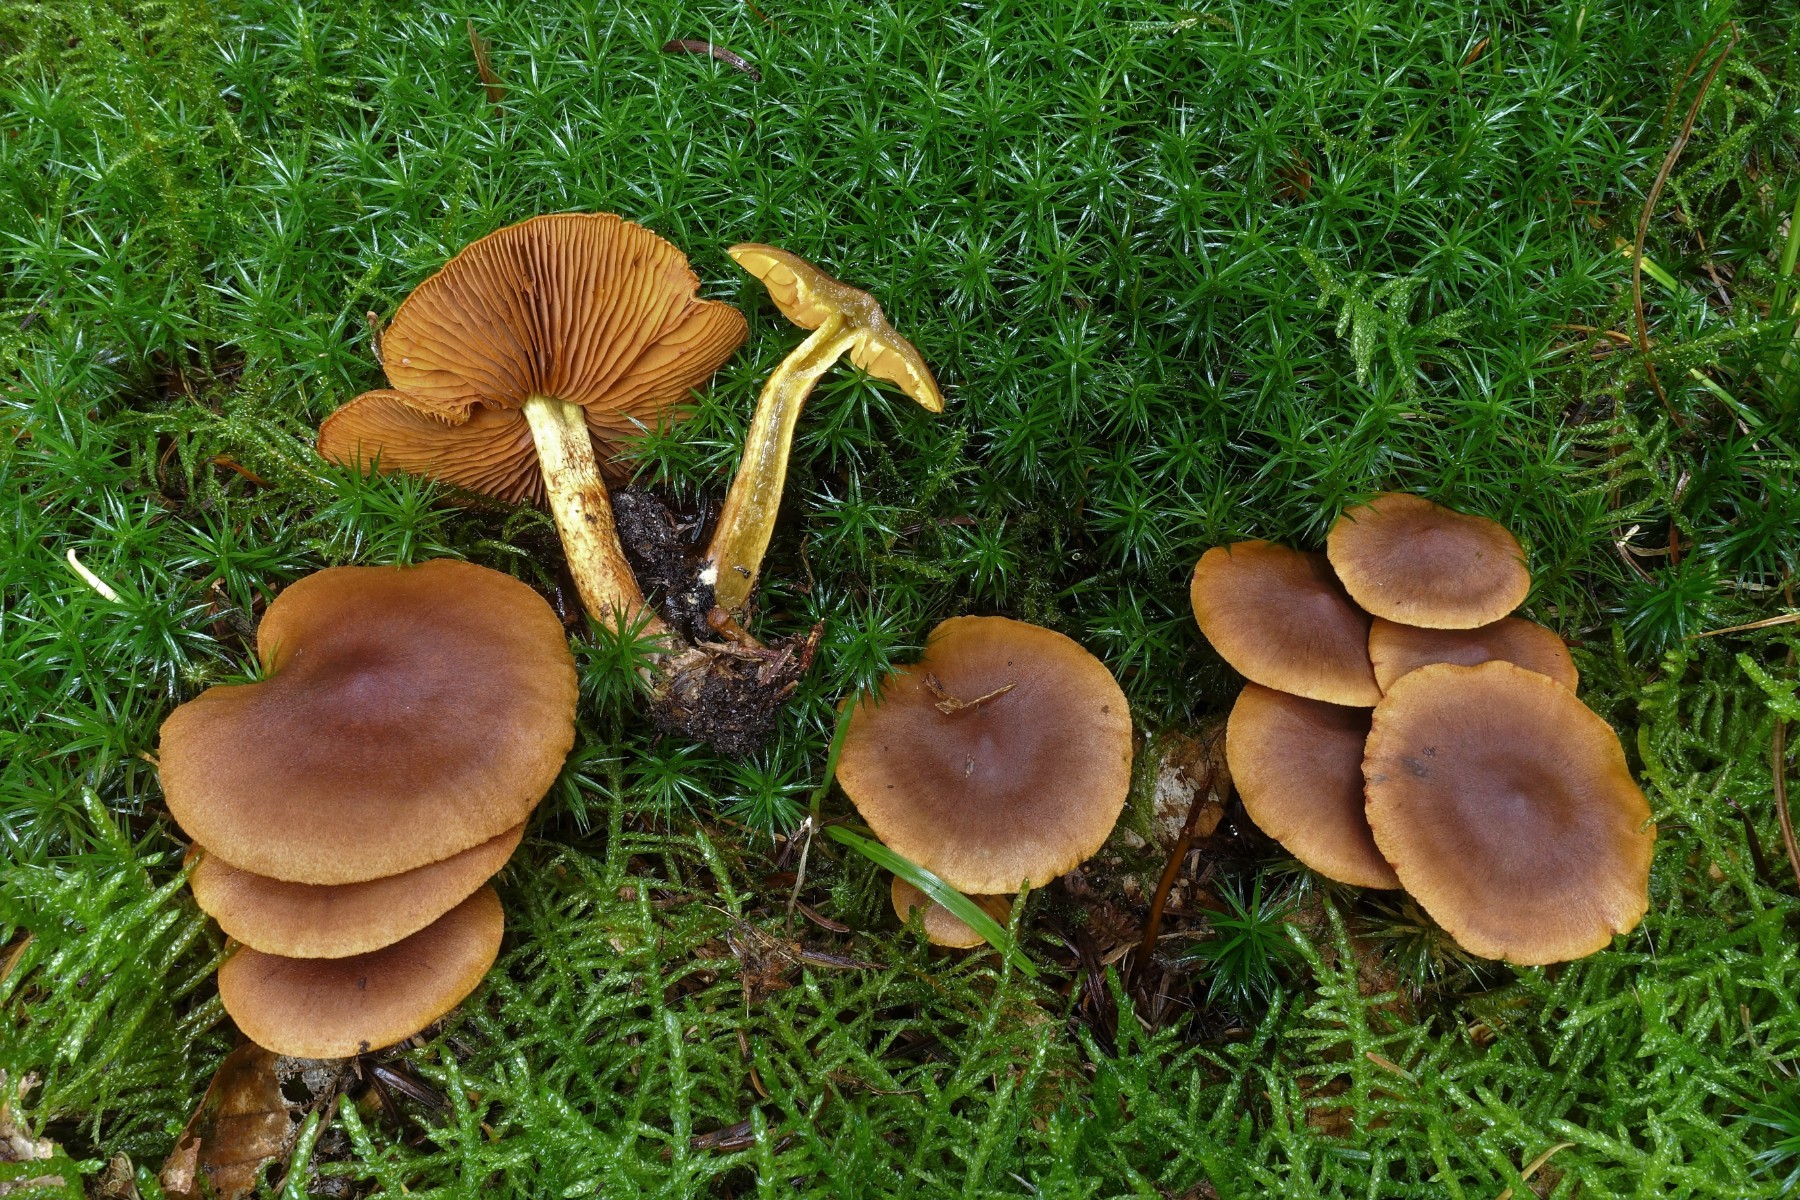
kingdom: Fungi
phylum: Basidiomycota
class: Agaricomycetes
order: Agaricales
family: Cortinariaceae
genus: Cortinarius
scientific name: Cortinarius malicorius
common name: grønkødet slørhat
